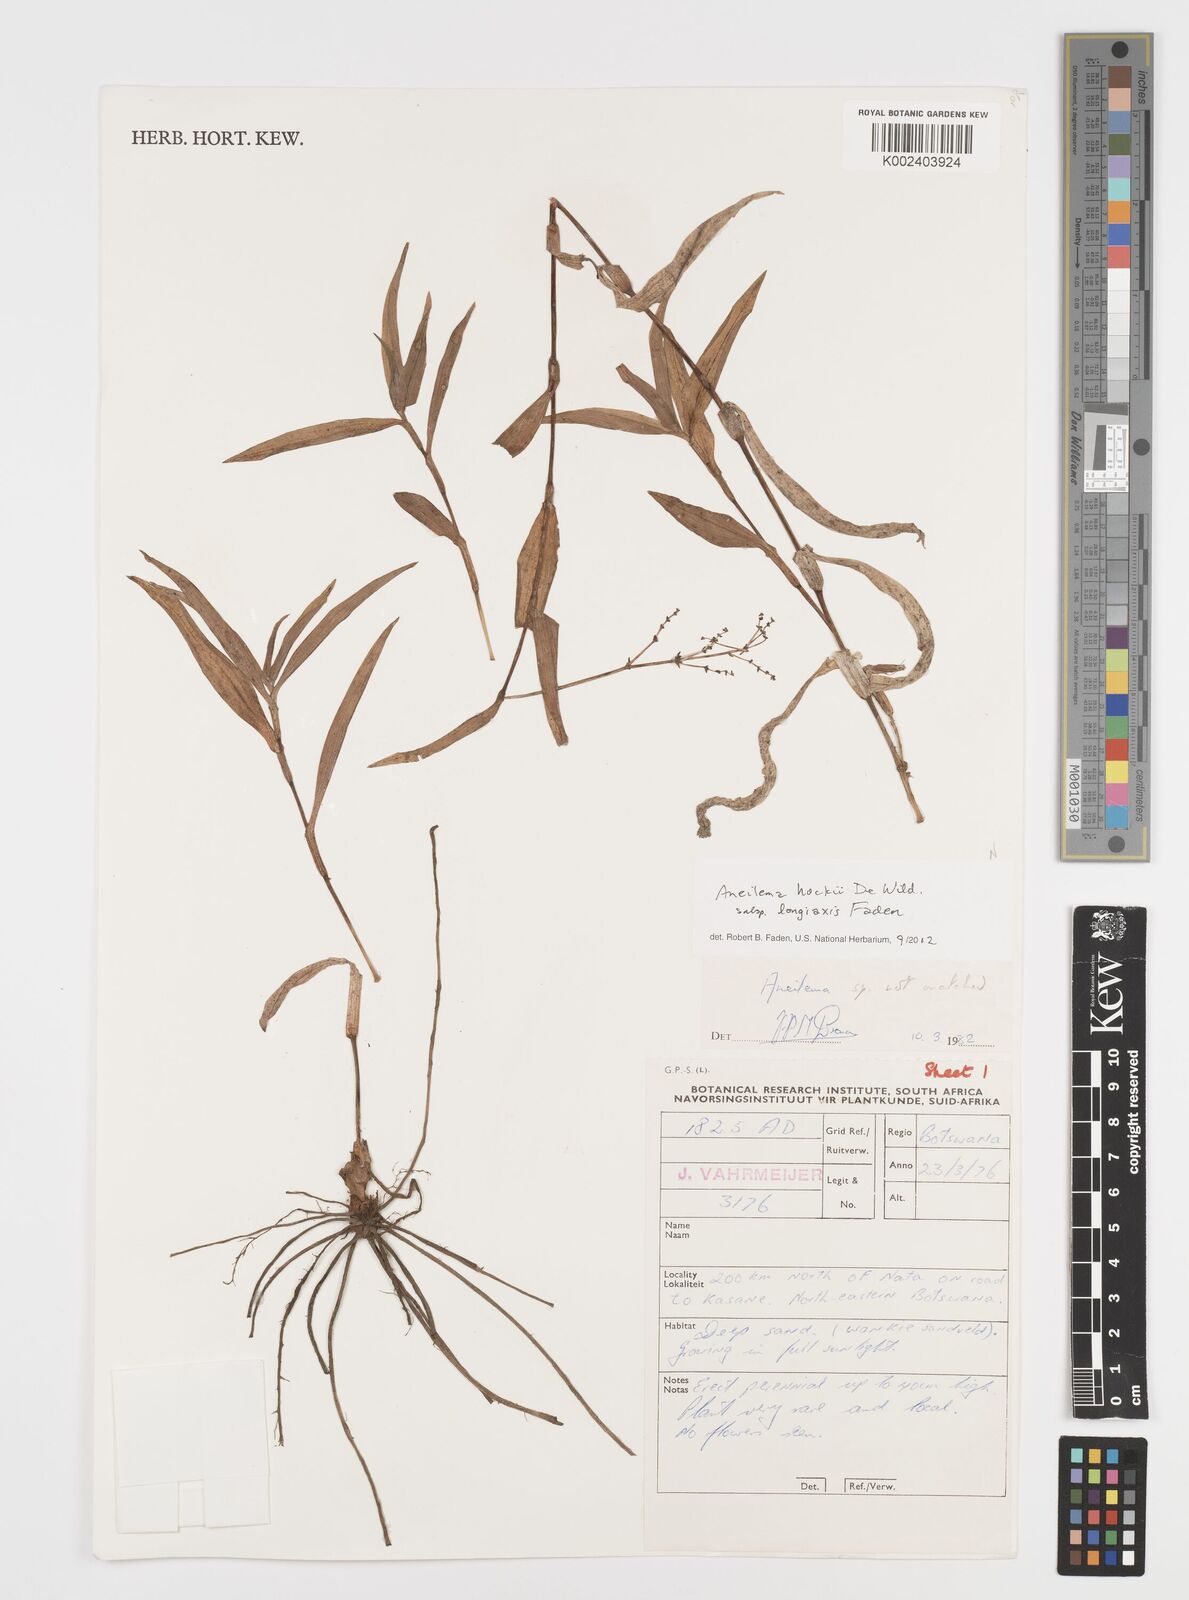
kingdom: Plantae
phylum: Tracheophyta
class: Liliopsida
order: Commelinales
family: Commelinaceae
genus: Aneilema
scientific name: Aneilema hockii
